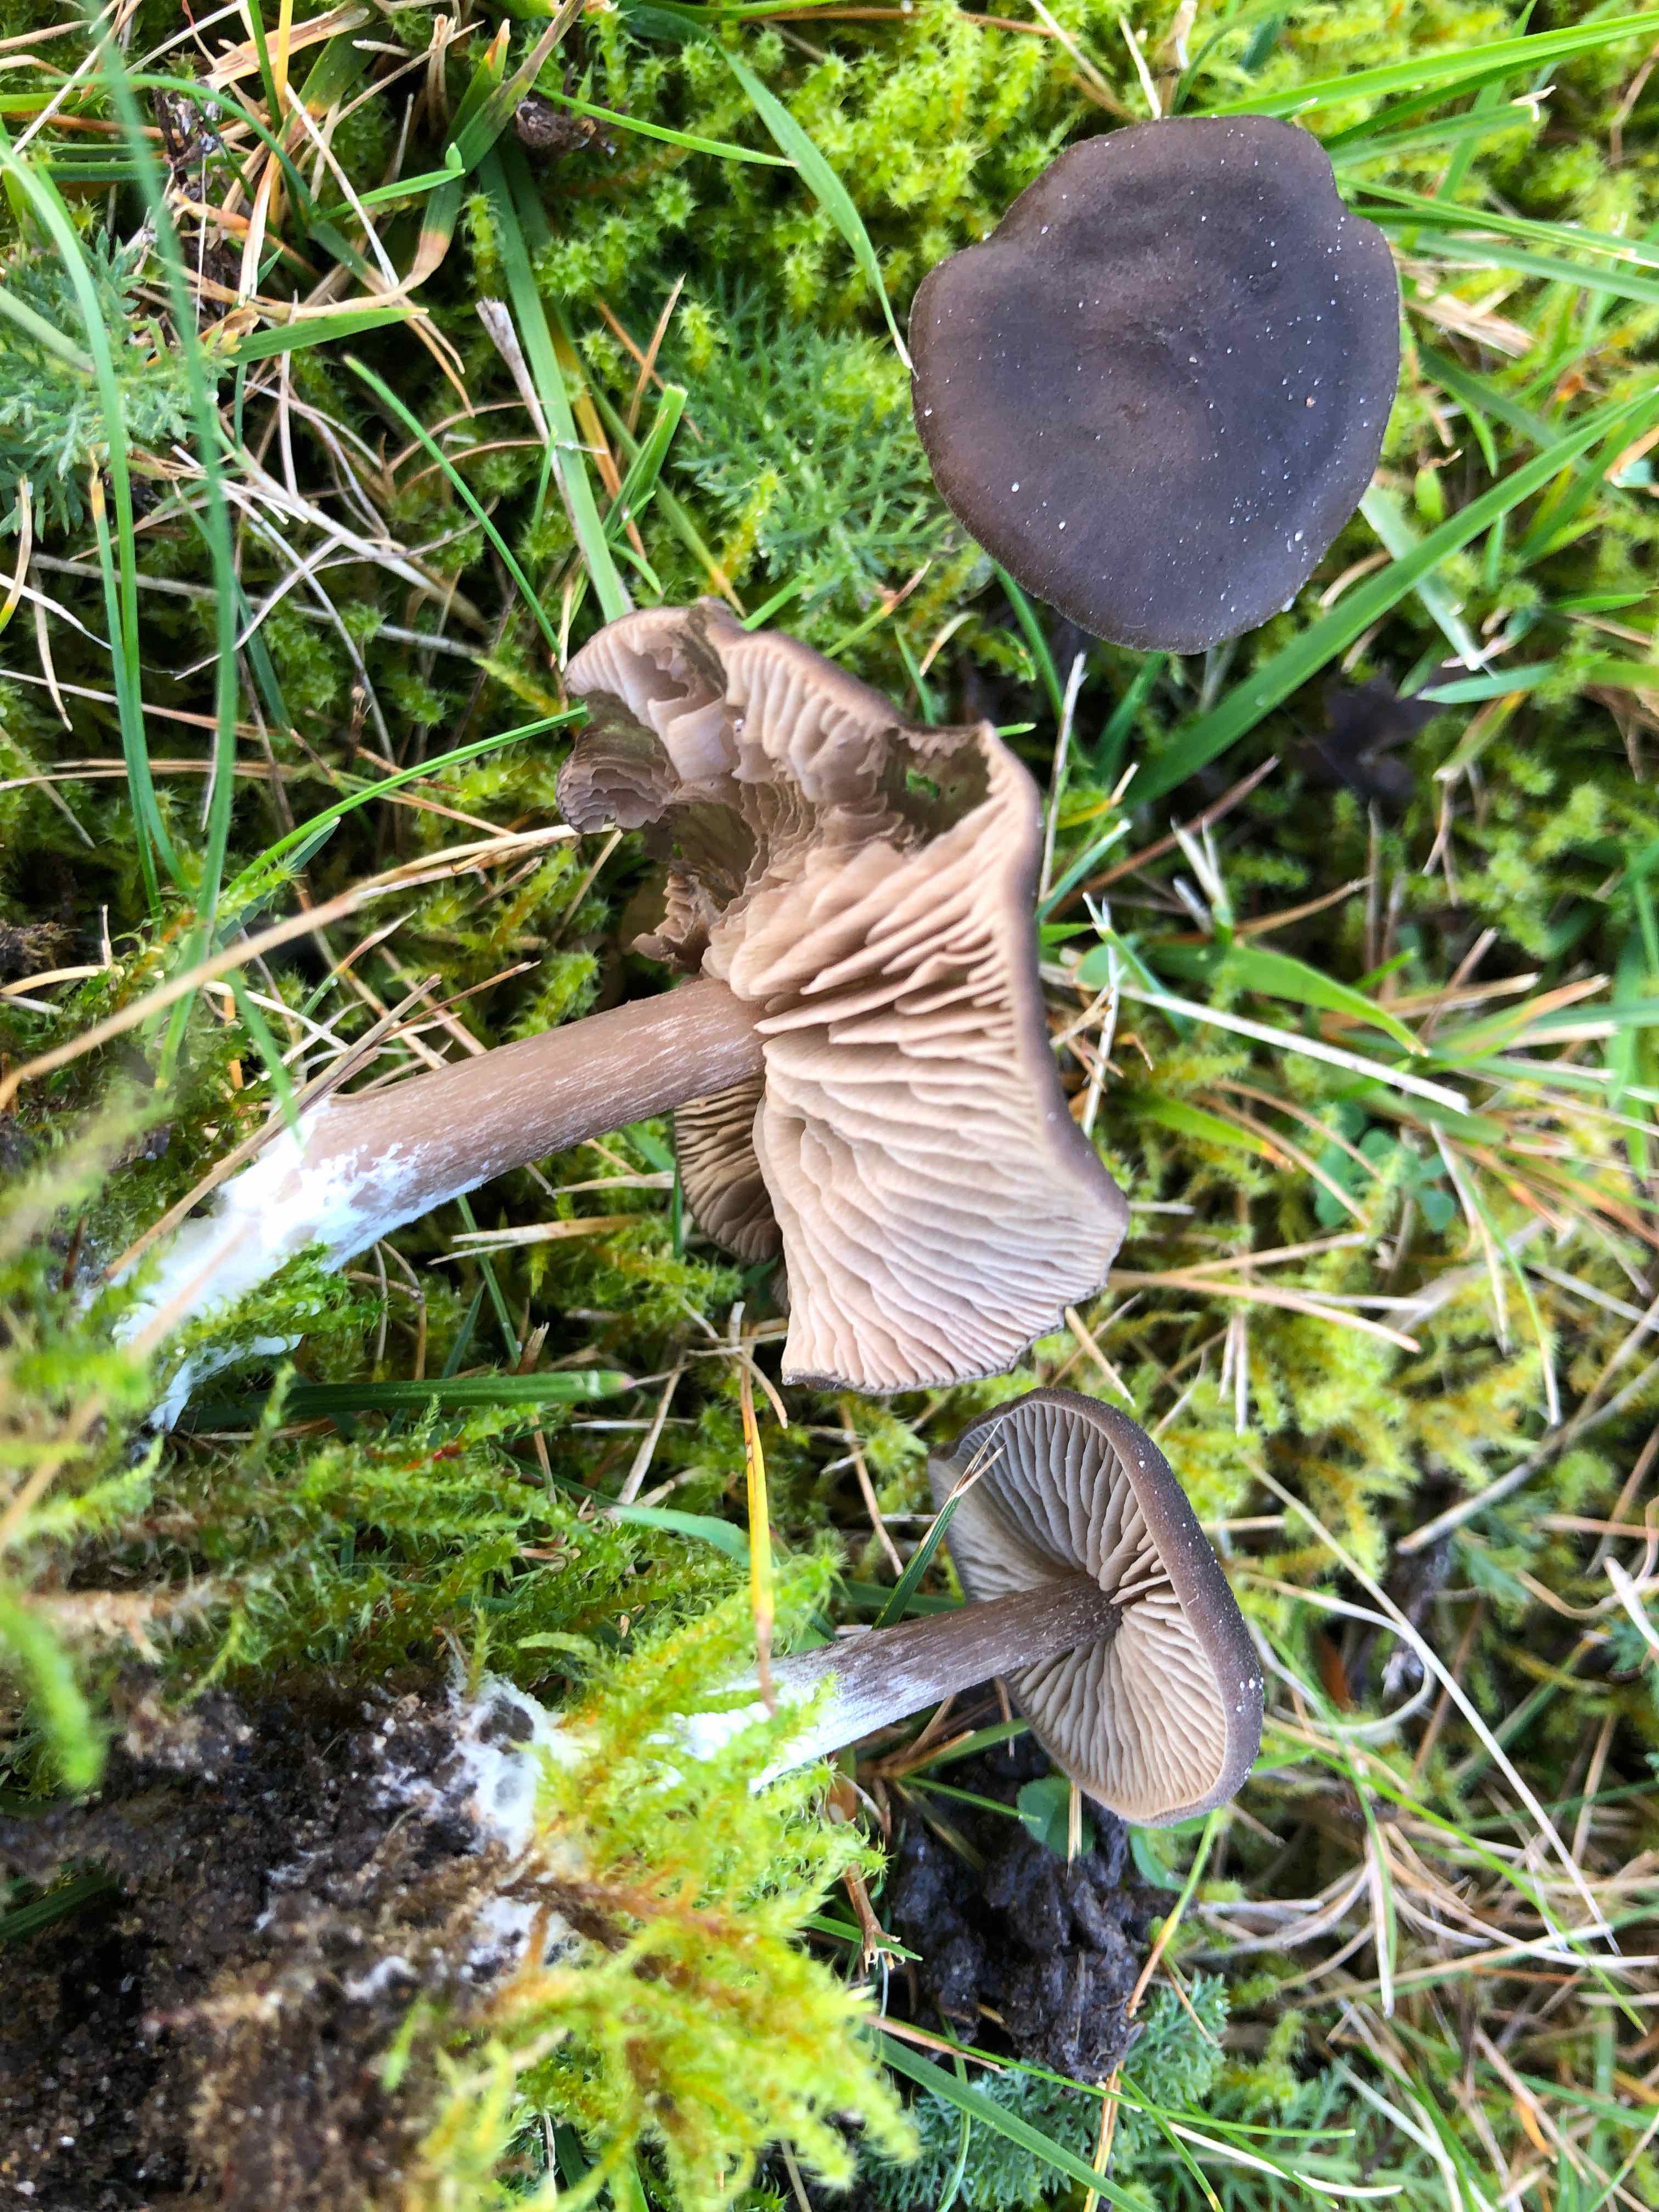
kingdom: Fungi
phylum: Basidiomycota
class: Agaricomycetes
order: Agaricales
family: Entolomataceae
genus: Entoloma
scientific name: Entoloma
